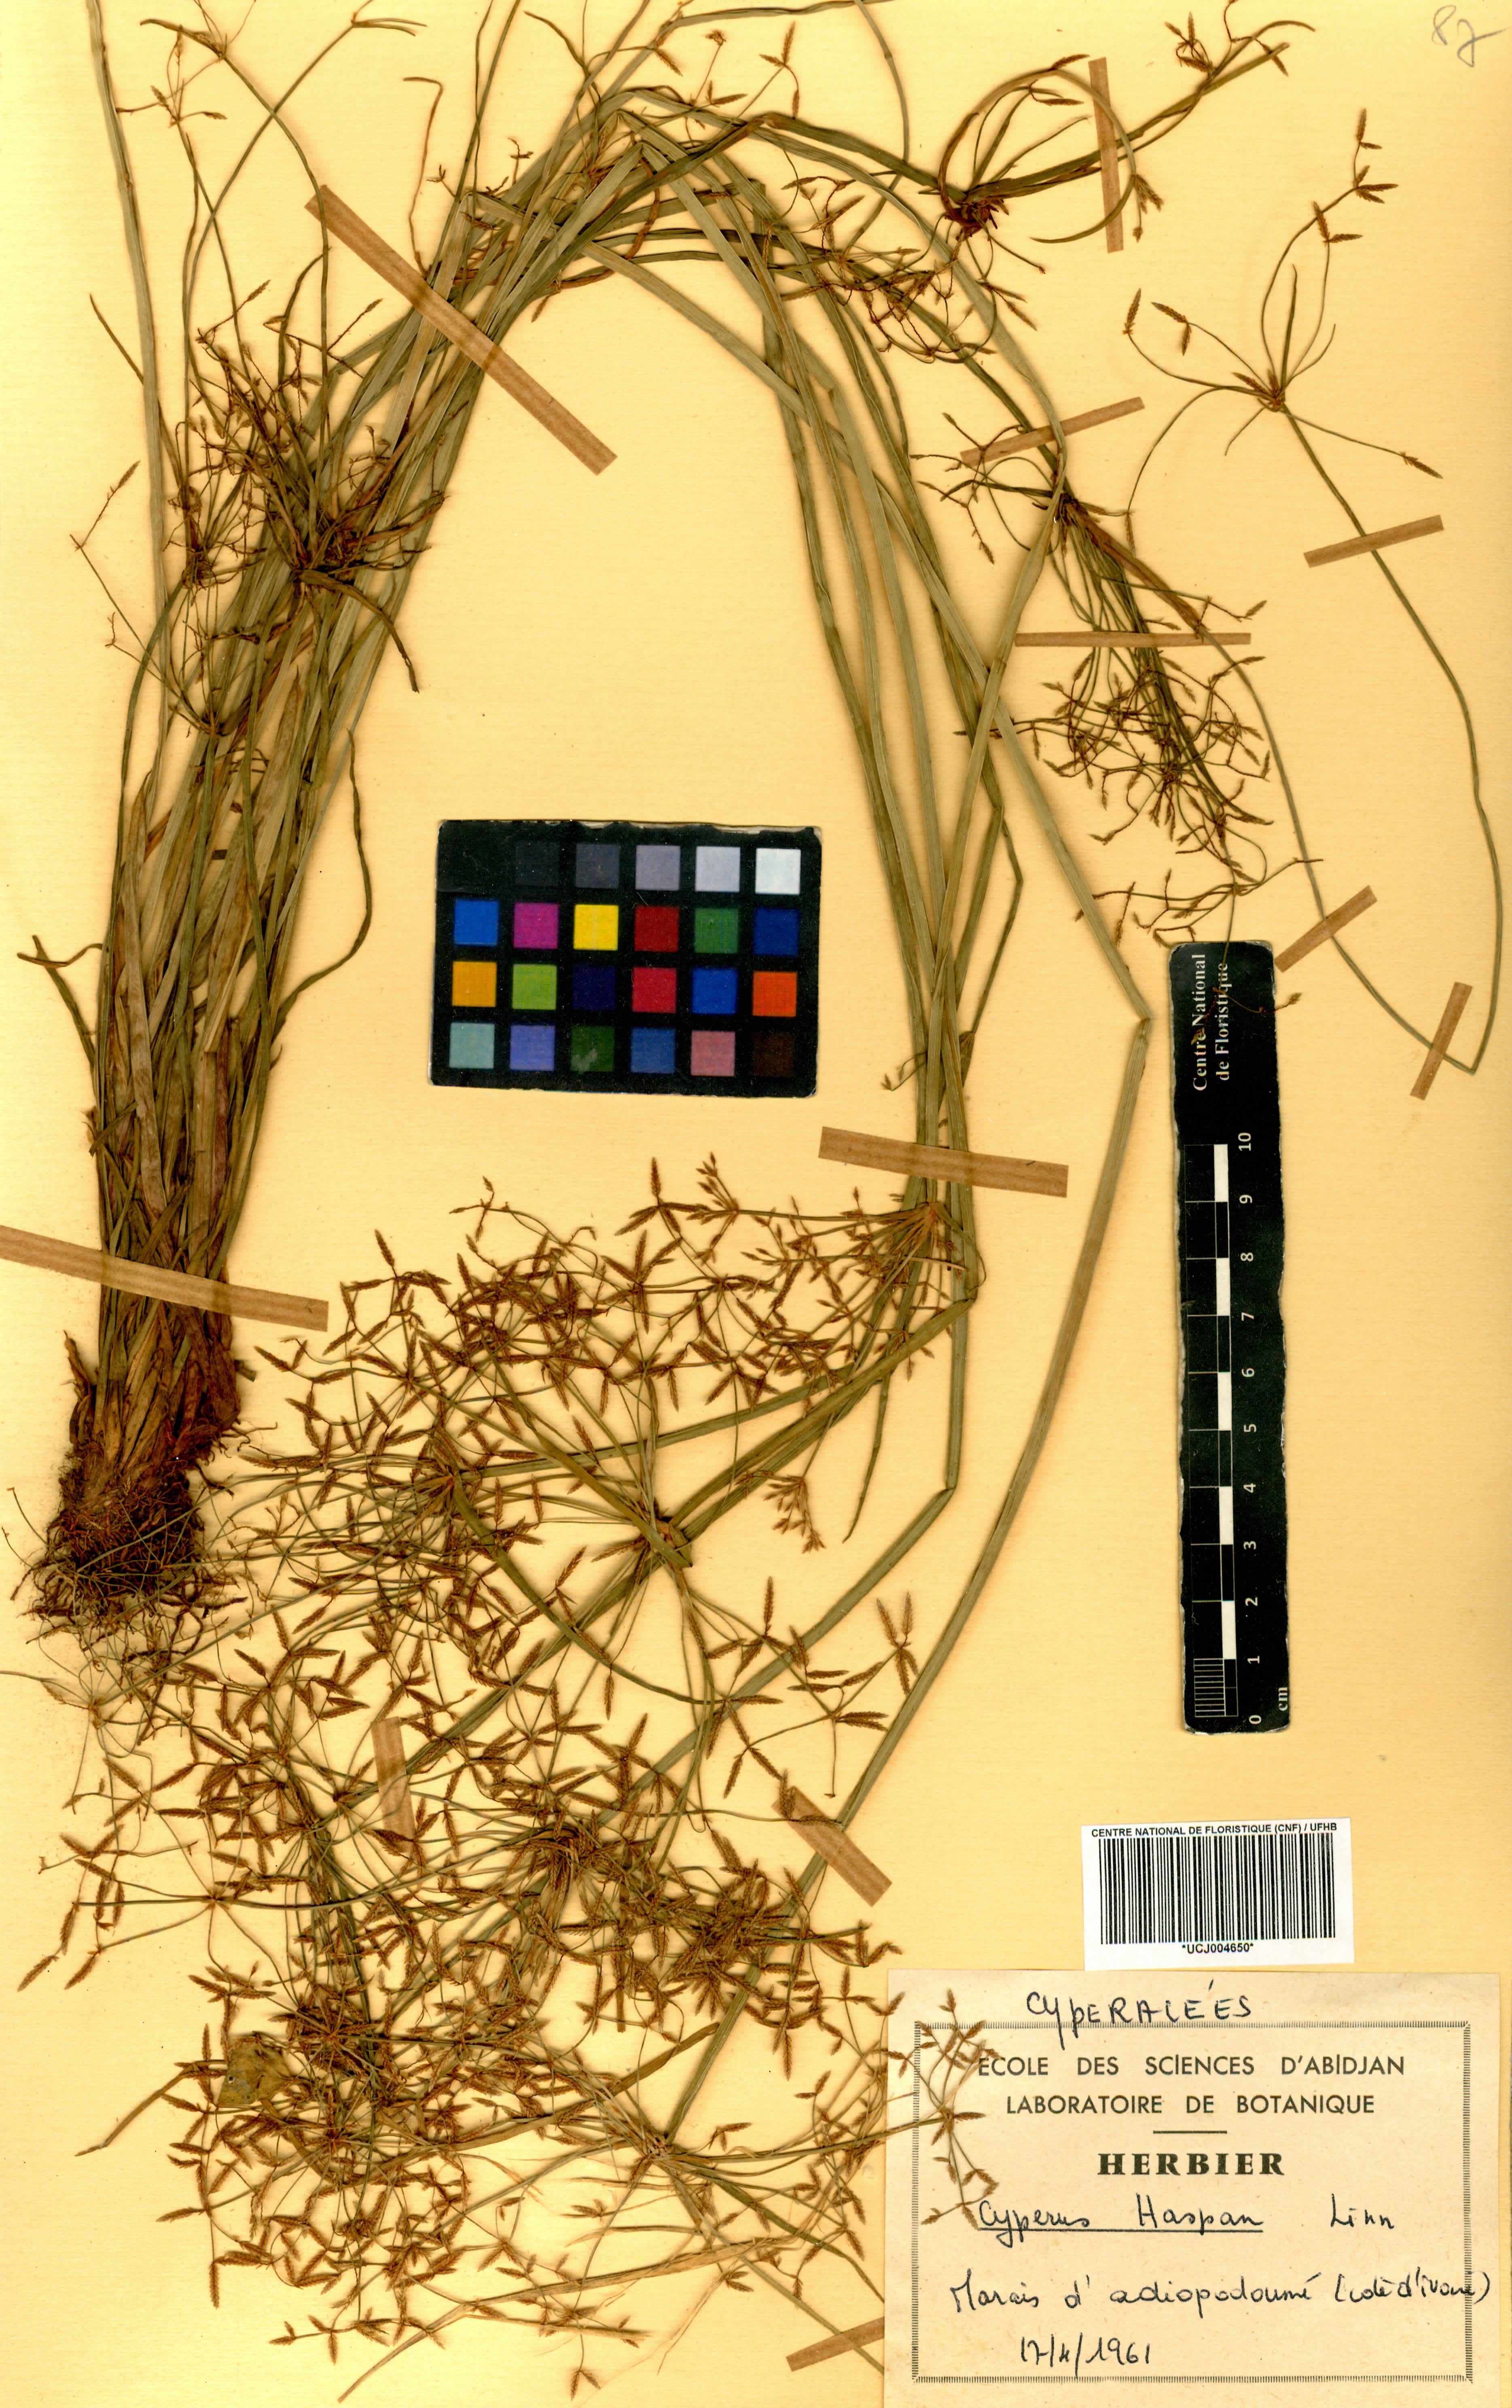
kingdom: Plantae
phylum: Tracheophyta
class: Liliopsida
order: Poales
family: Cyperaceae
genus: Cyperus
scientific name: Cyperus haspan
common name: Haspan flatsedge
